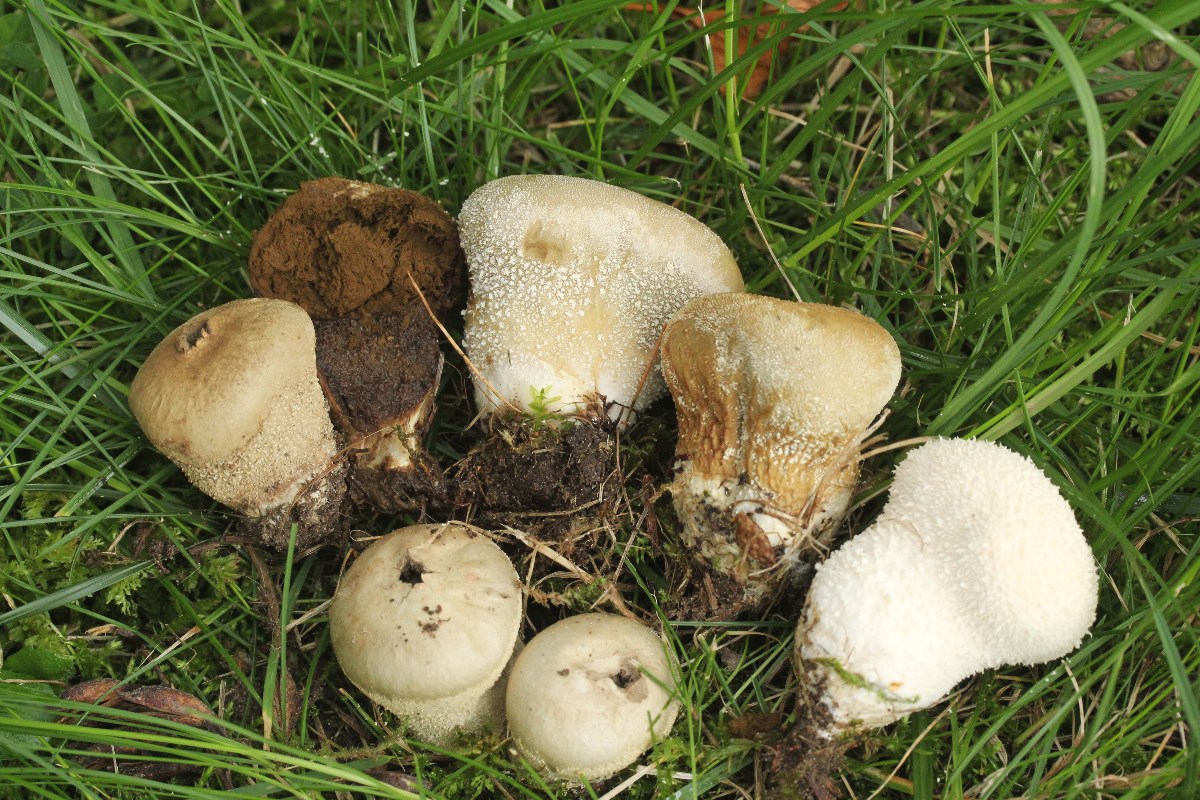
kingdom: Fungi
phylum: Basidiomycota
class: Agaricomycetes
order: Agaricales
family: Lycoperdaceae
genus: Lycoperdon
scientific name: Lycoperdon pratense
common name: flad støvbold
